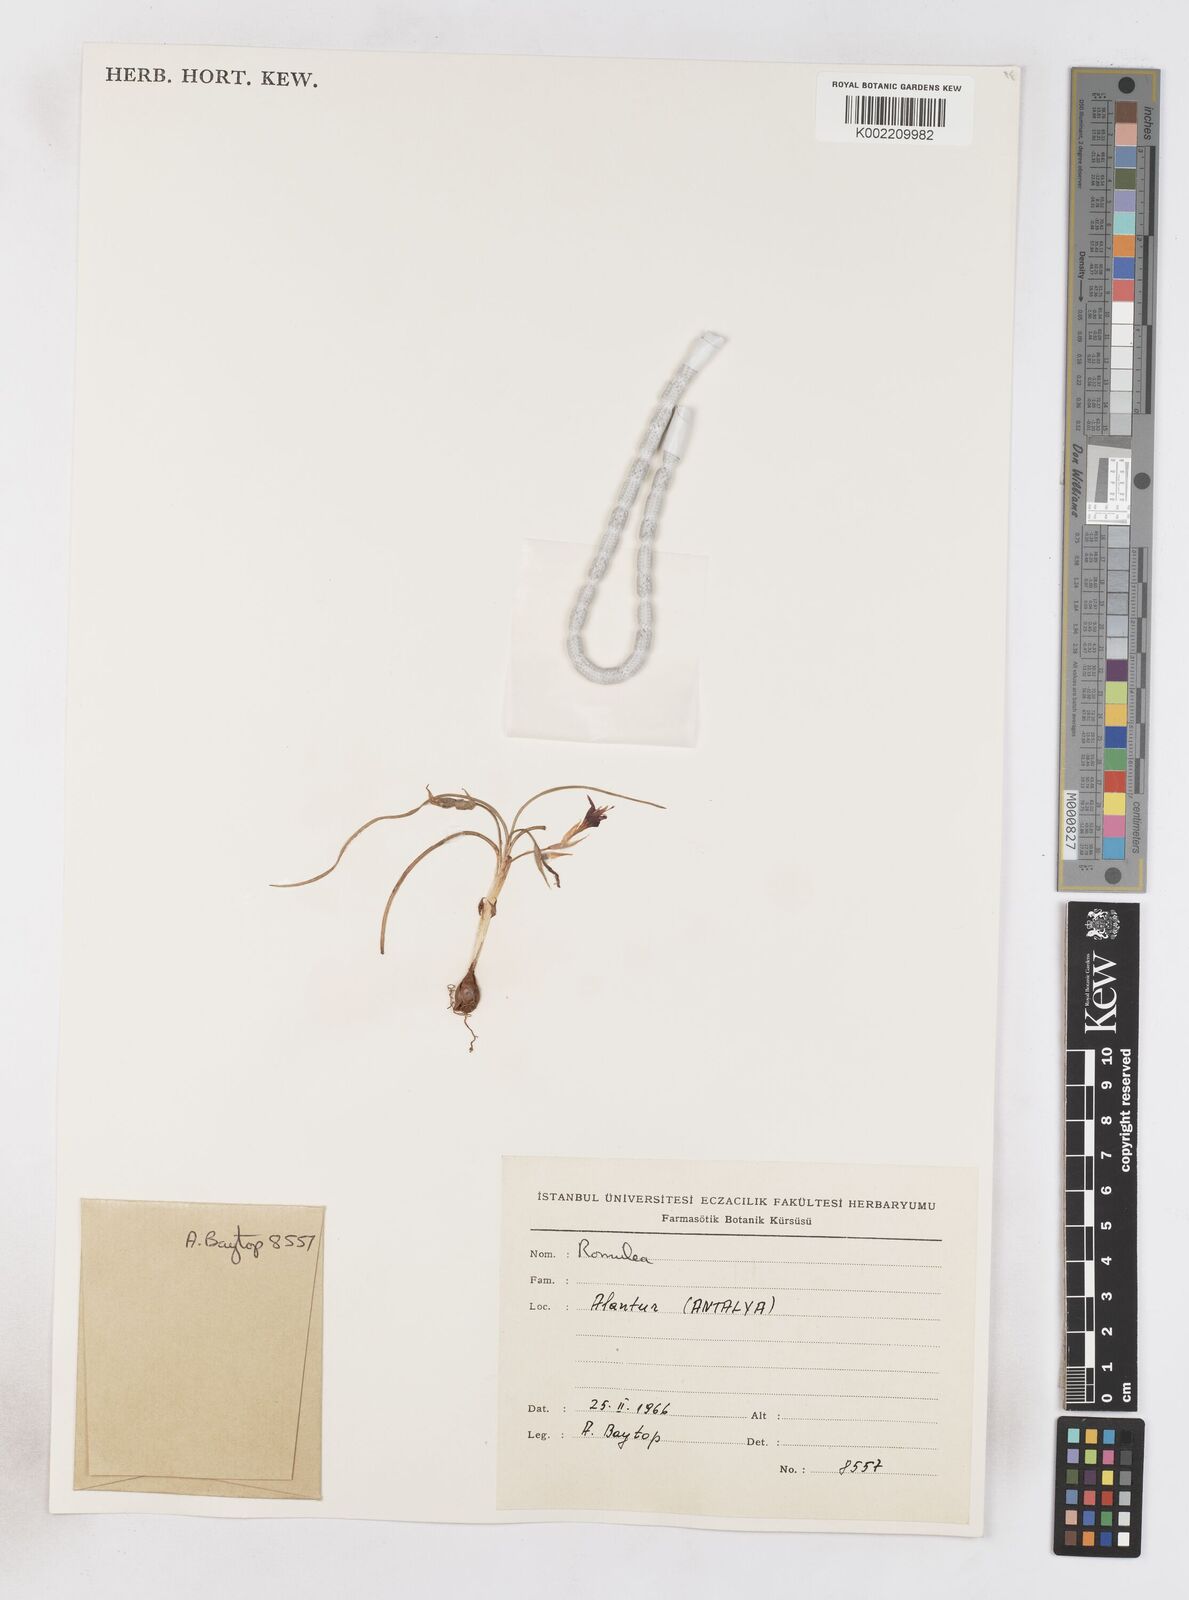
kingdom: Plantae
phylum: Tracheophyta
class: Liliopsida
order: Asparagales
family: Iridaceae
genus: Romulea
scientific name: Romulea tempskyana
